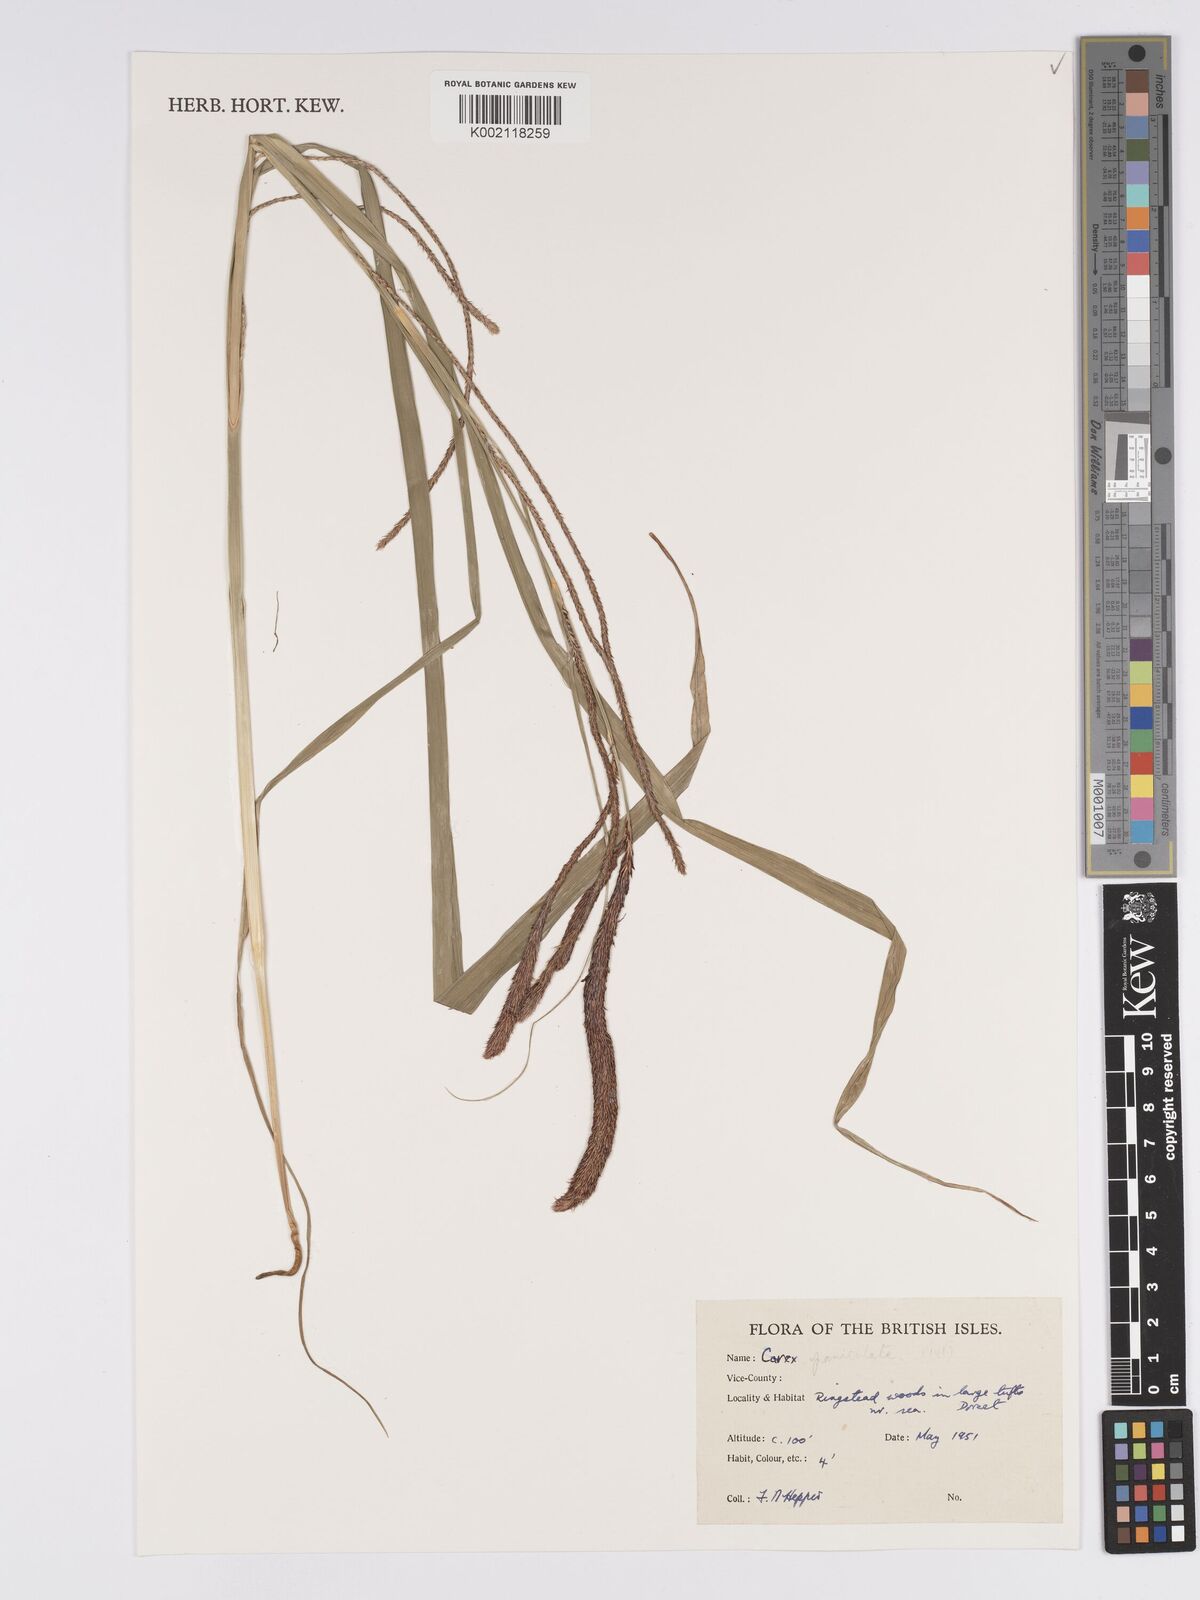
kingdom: Plantae
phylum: Tracheophyta
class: Liliopsida
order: Poales
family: Cyperaceae
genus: Carex
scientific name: Carex paniculata
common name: Greater tussock-sedge
